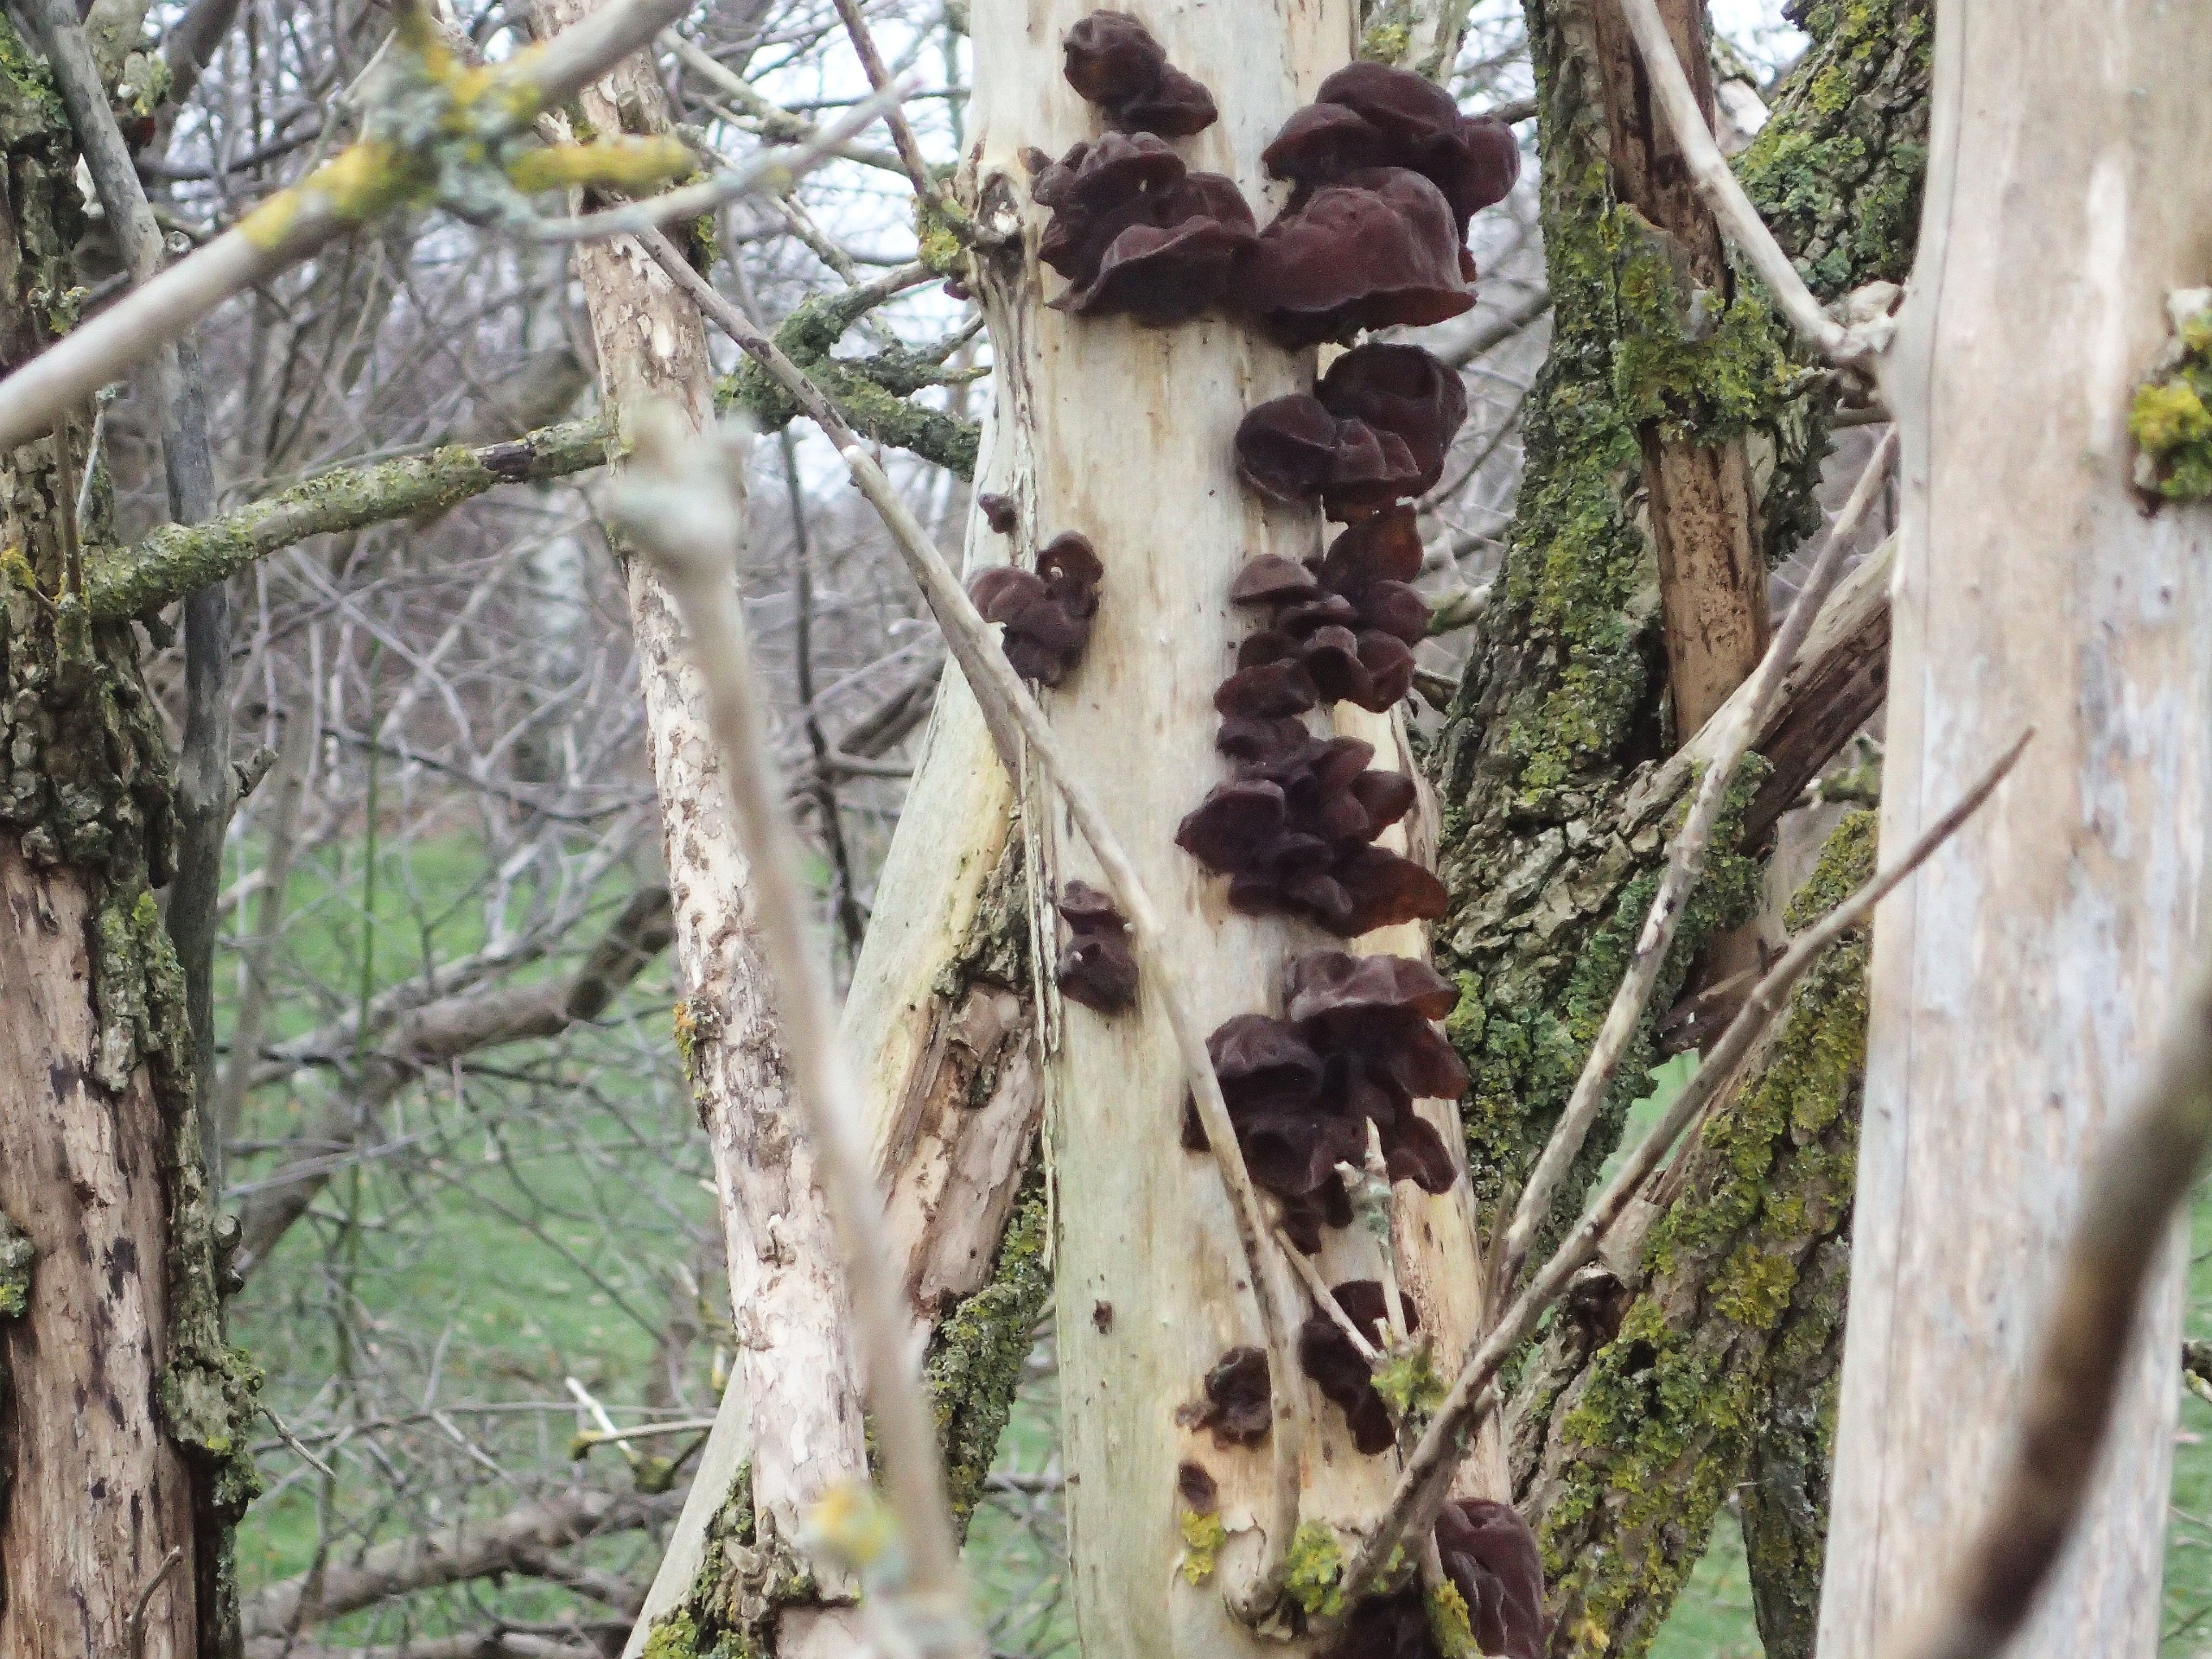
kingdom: Fungi
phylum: Basidiomycota
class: Agaricomycetes
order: Auriculariales
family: Auriculariaceae
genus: Auricularia
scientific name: Auricularia auricula-judae
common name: Almindelig judasøre
